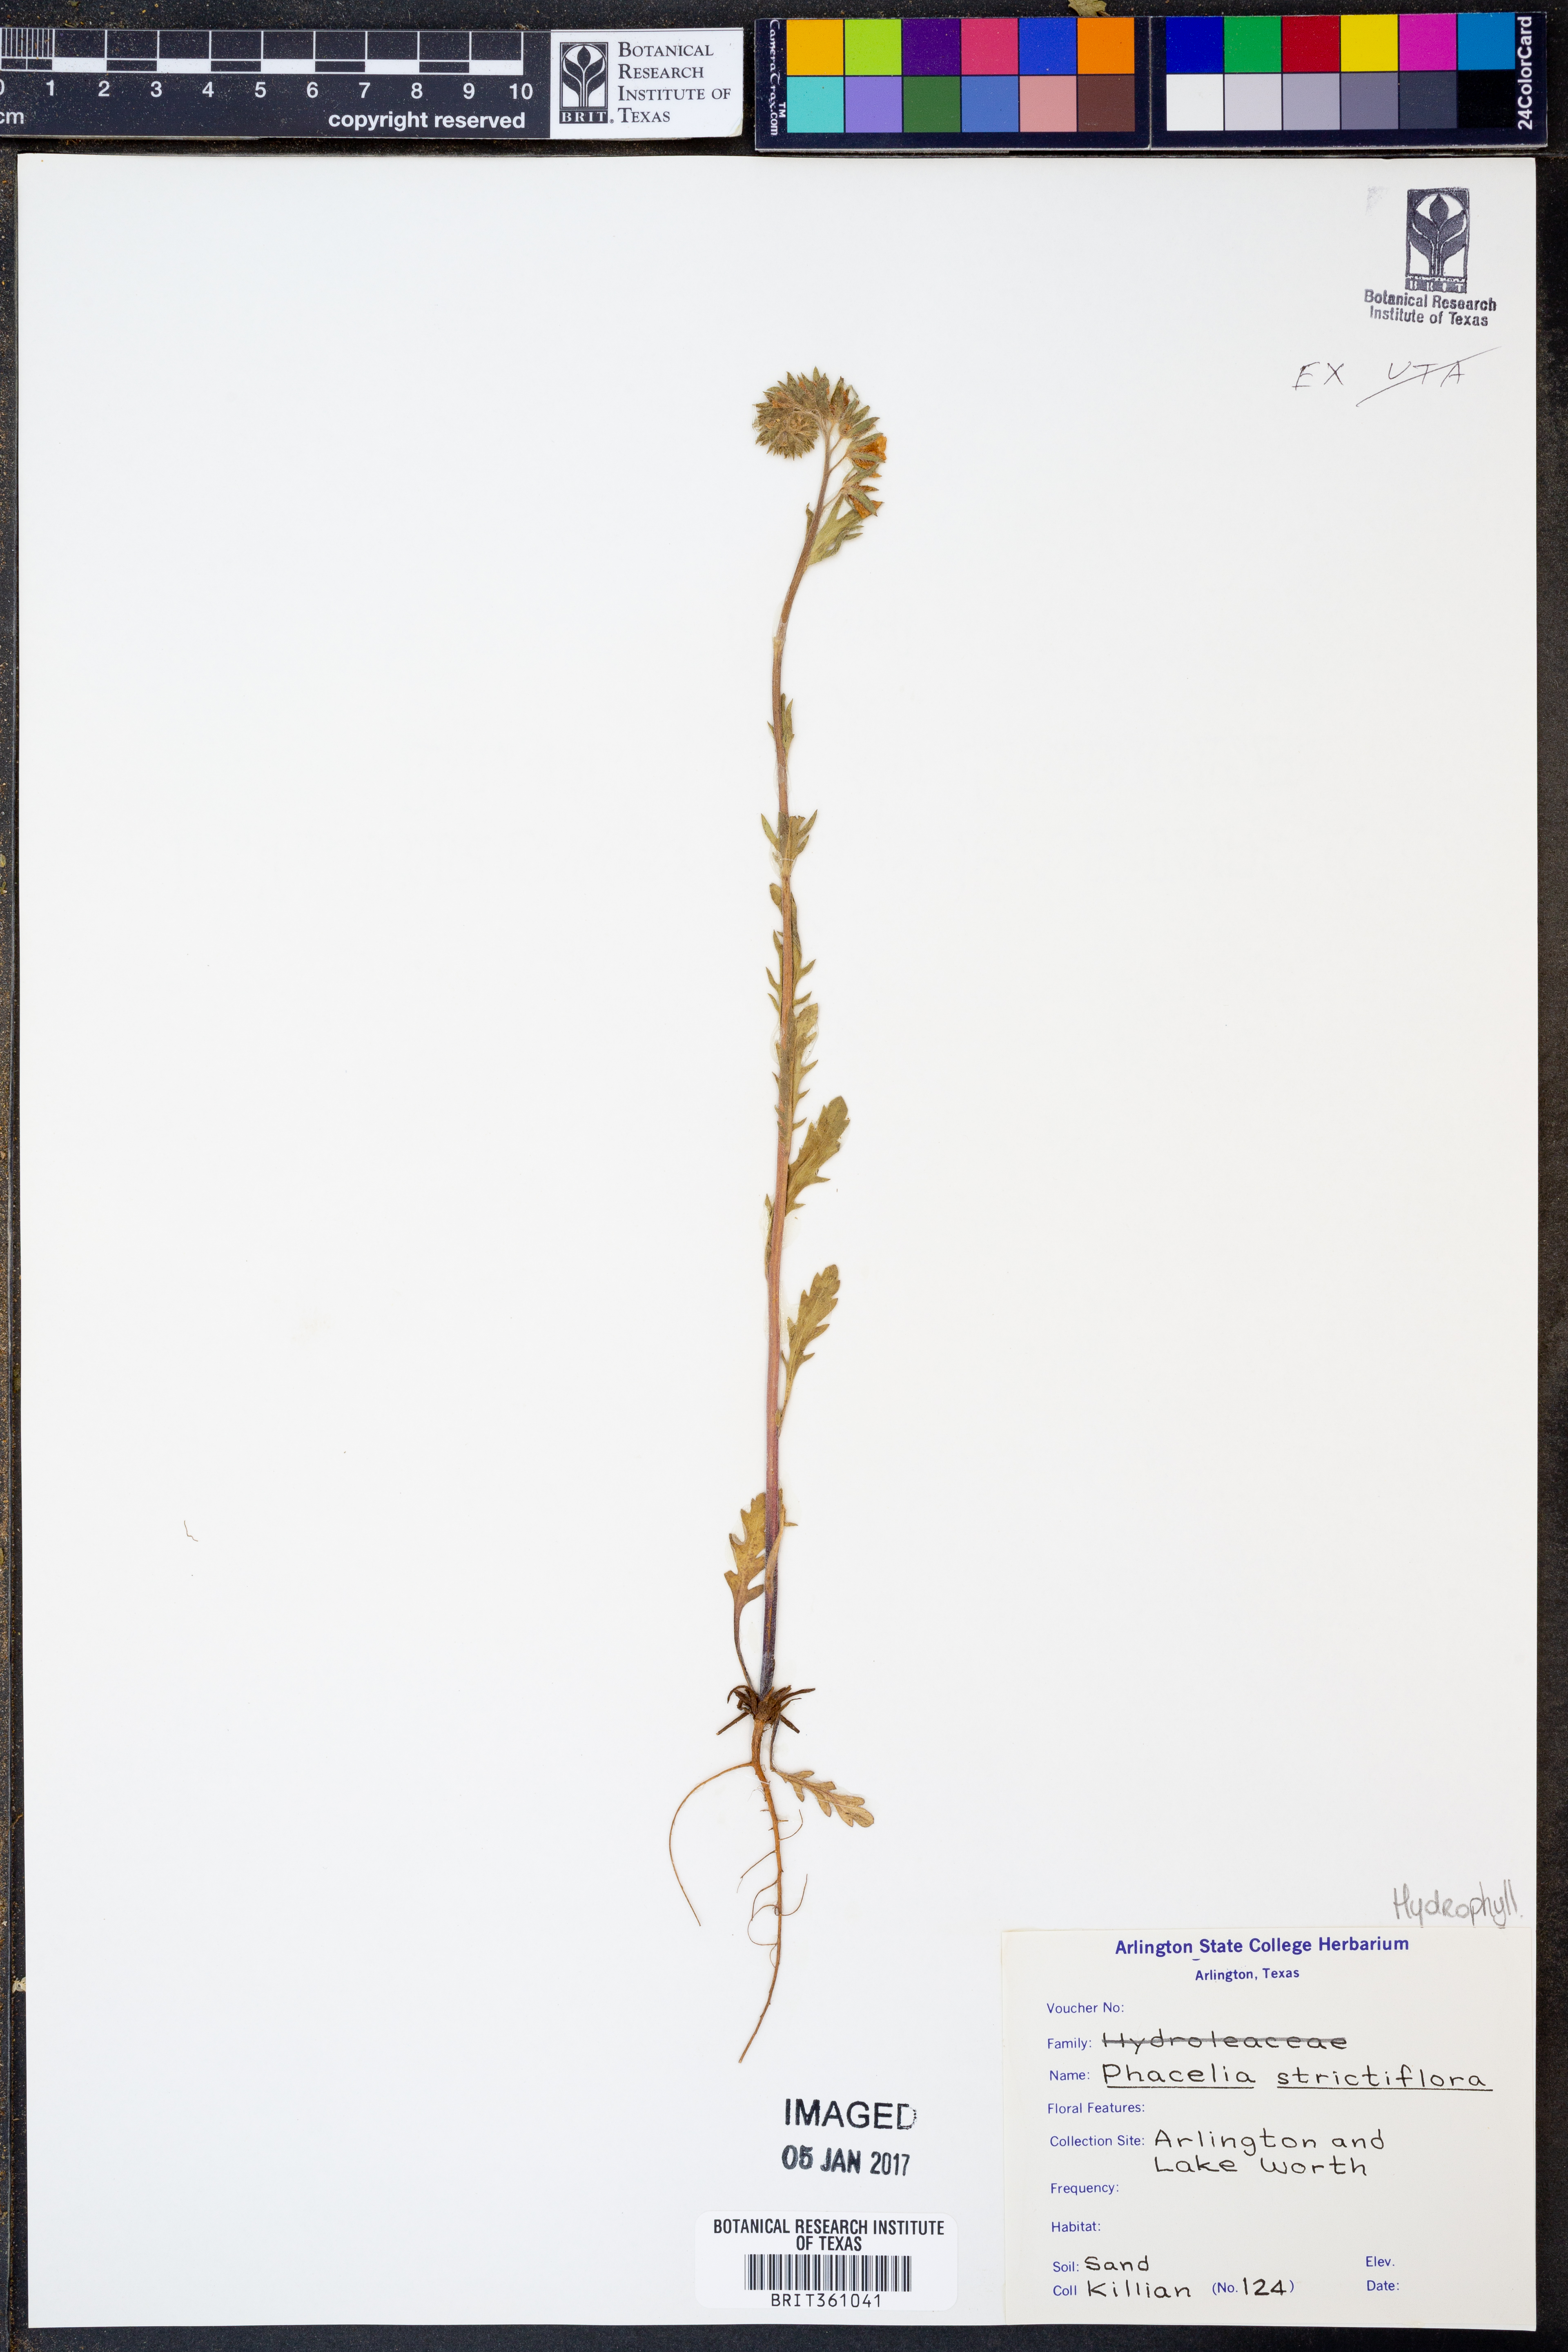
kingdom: Plantae
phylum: Tracheophyta
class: Magnoliopsida
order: Boraginales
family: Hydrophyllaceae
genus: Phacelia
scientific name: Phacelia strictiflora
